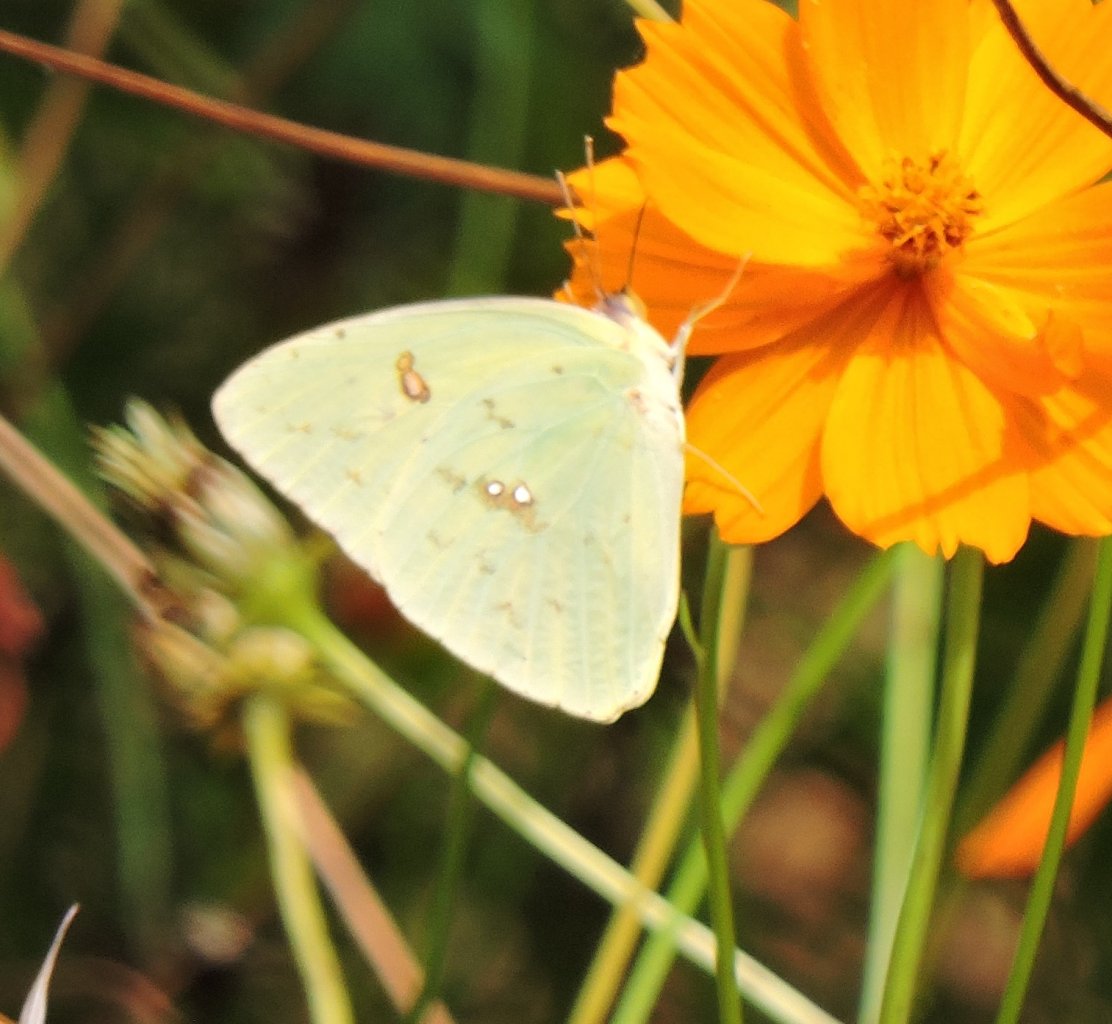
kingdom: Animalia
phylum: Arthropoda
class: Insecta
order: Lepidoptera
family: Pieridae
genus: Phoebis
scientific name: Phoebis sennae
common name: Cloudless Sulphur
